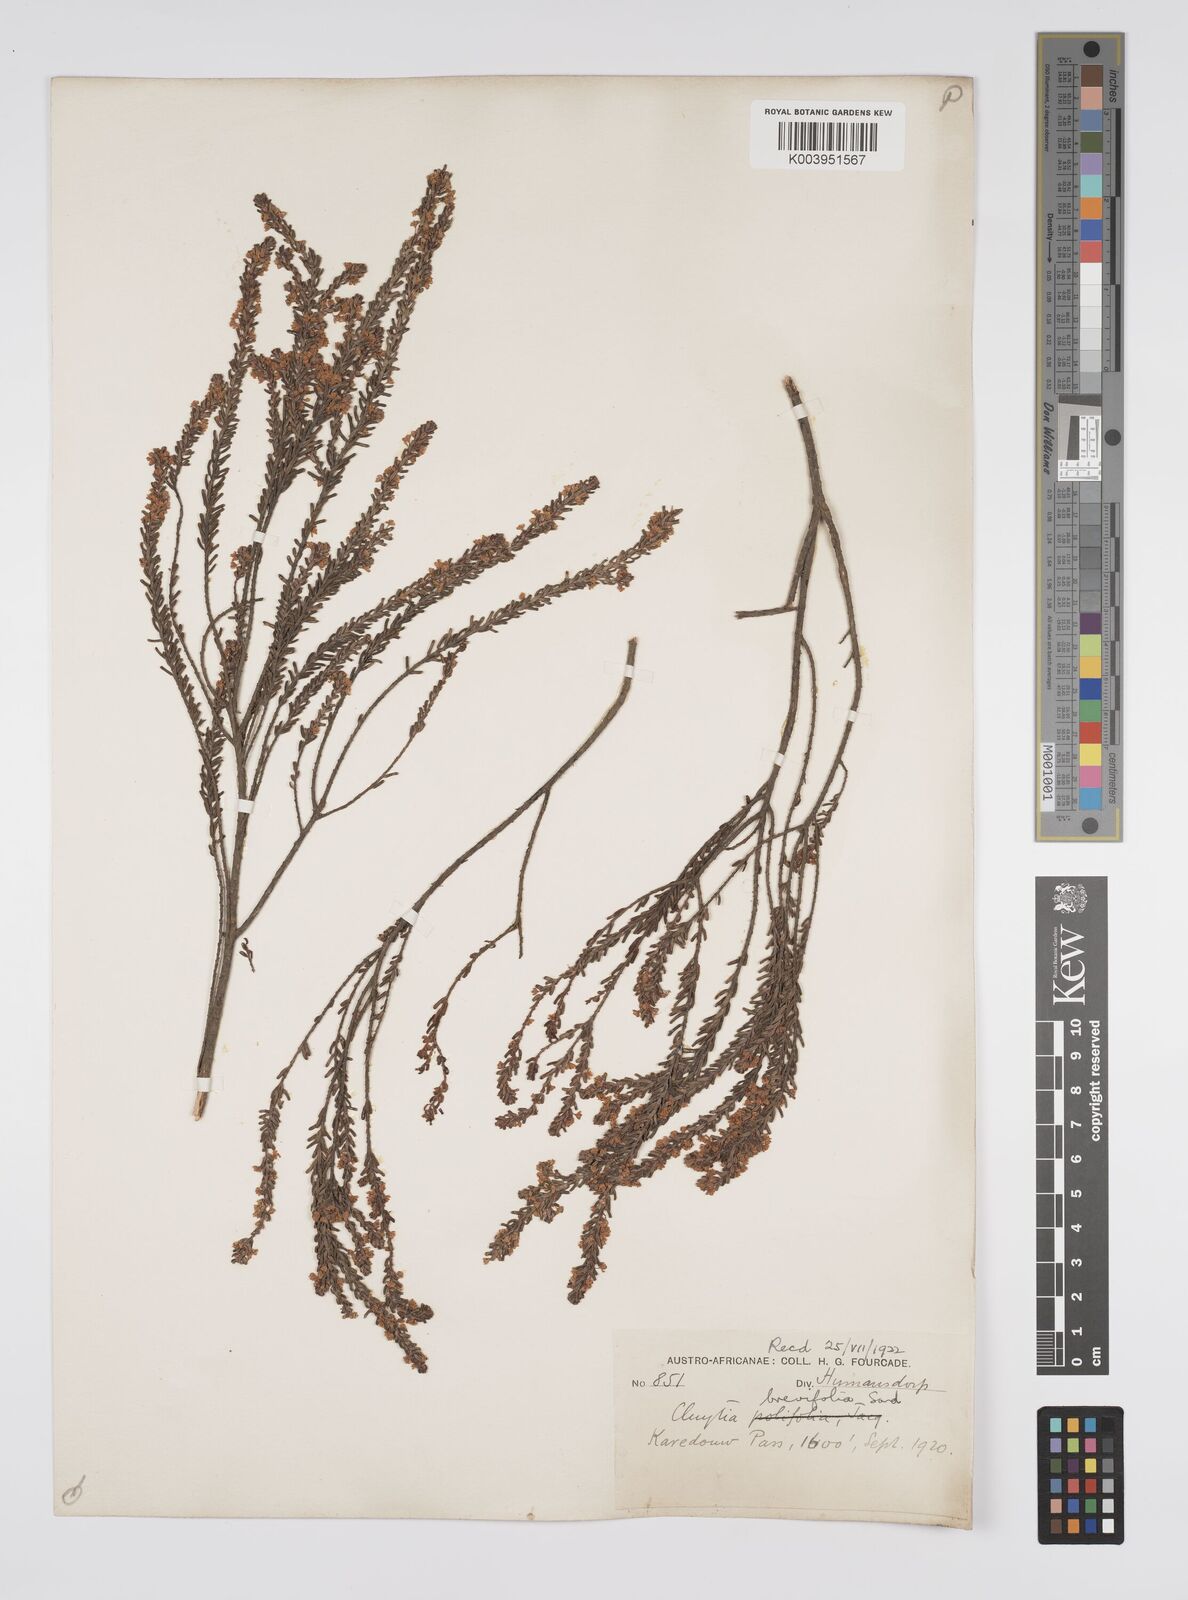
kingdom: Plantae
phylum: Tracheophyta
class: Magnoliopsida
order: Malpighiales
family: Peraceae
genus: Clutia
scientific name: Clutia brevifolia
